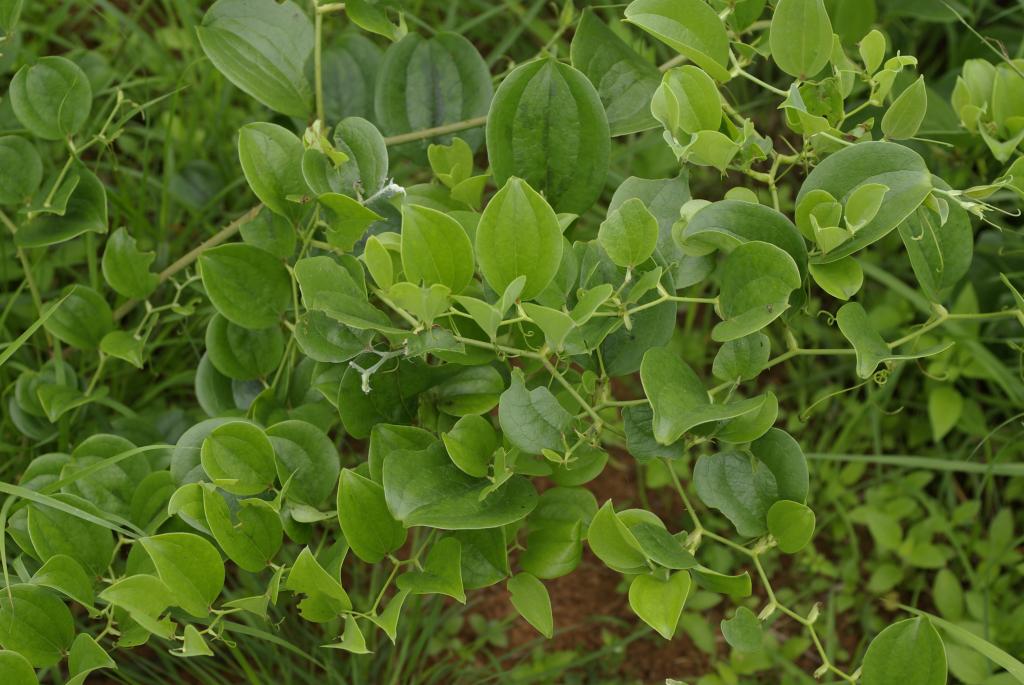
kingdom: Plantae
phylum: Tracheophyta
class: Liliopsida
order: Liliales
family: Smilacaceae
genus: Smilax
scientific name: Smilax china
